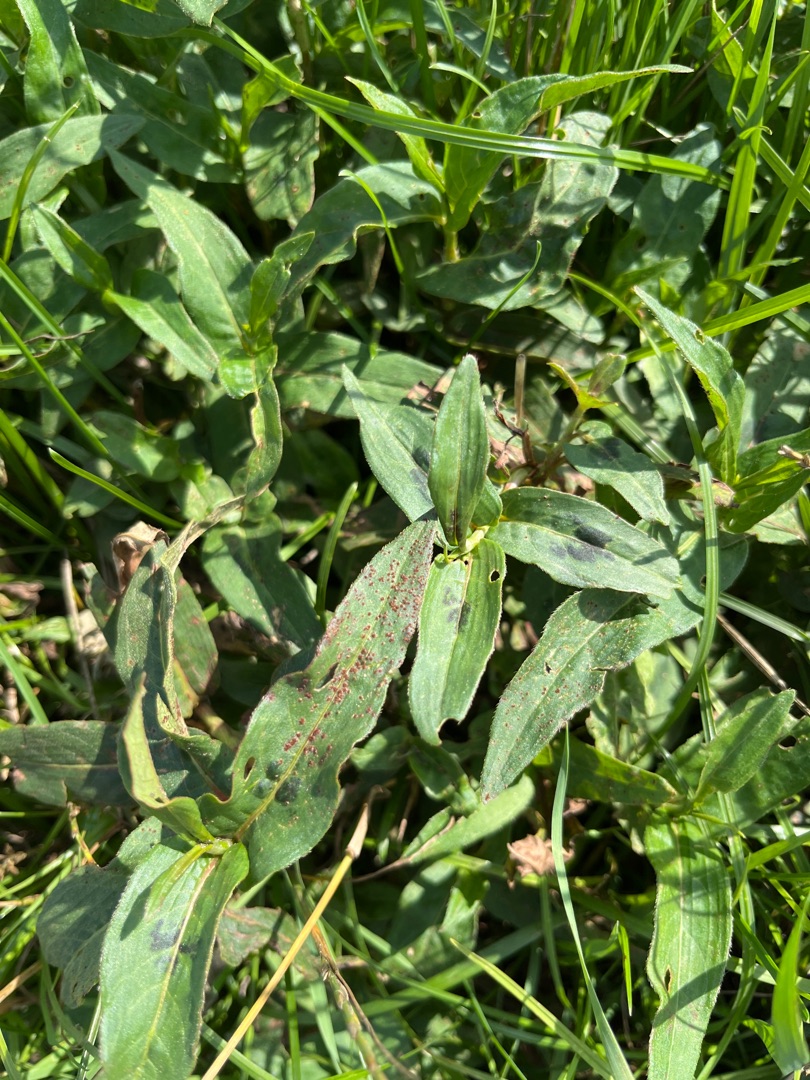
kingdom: Plantae
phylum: Tracheophyta
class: Magnoliopsida
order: Caryophyllales
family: Polygonaceae
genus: Persicaria
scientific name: Persicaria amphibia
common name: Vand-pileurt
